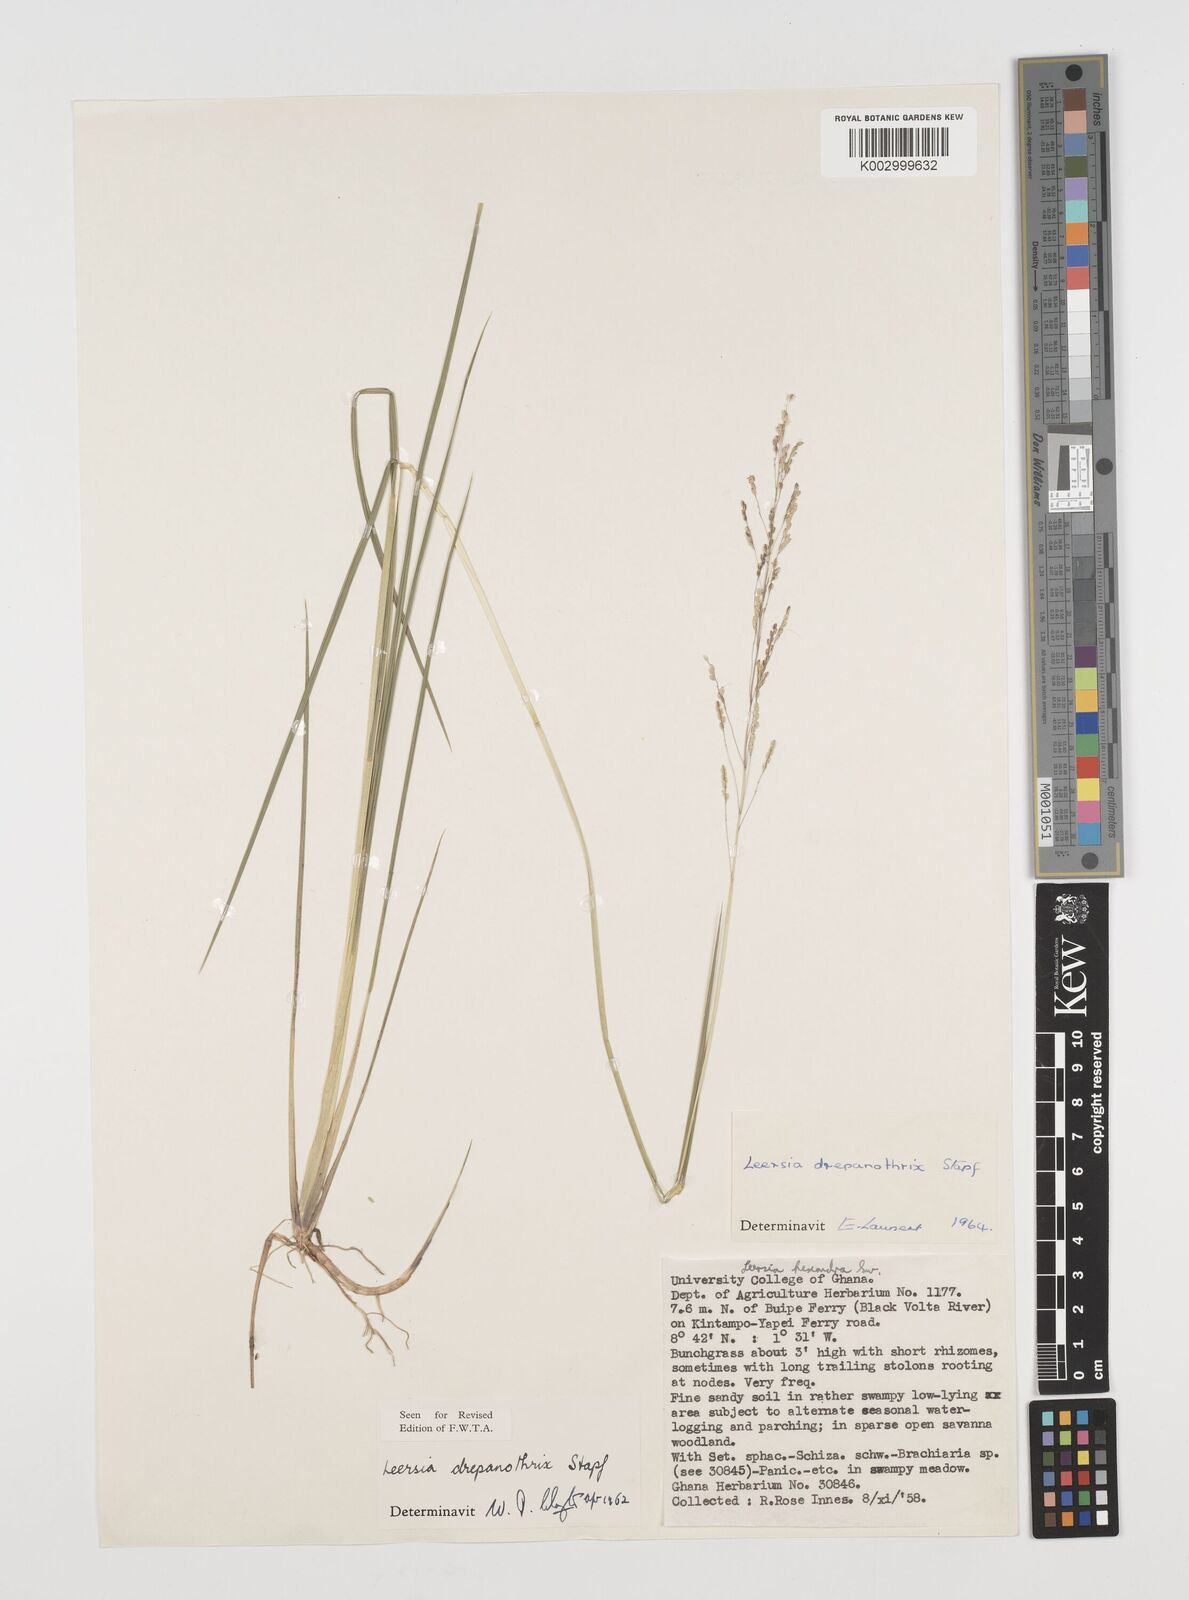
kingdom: Plantae
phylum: Tracheophyta
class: Liliopsida
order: Poales
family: Poaceae
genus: Leersia
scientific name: Leersia drepanothrix
